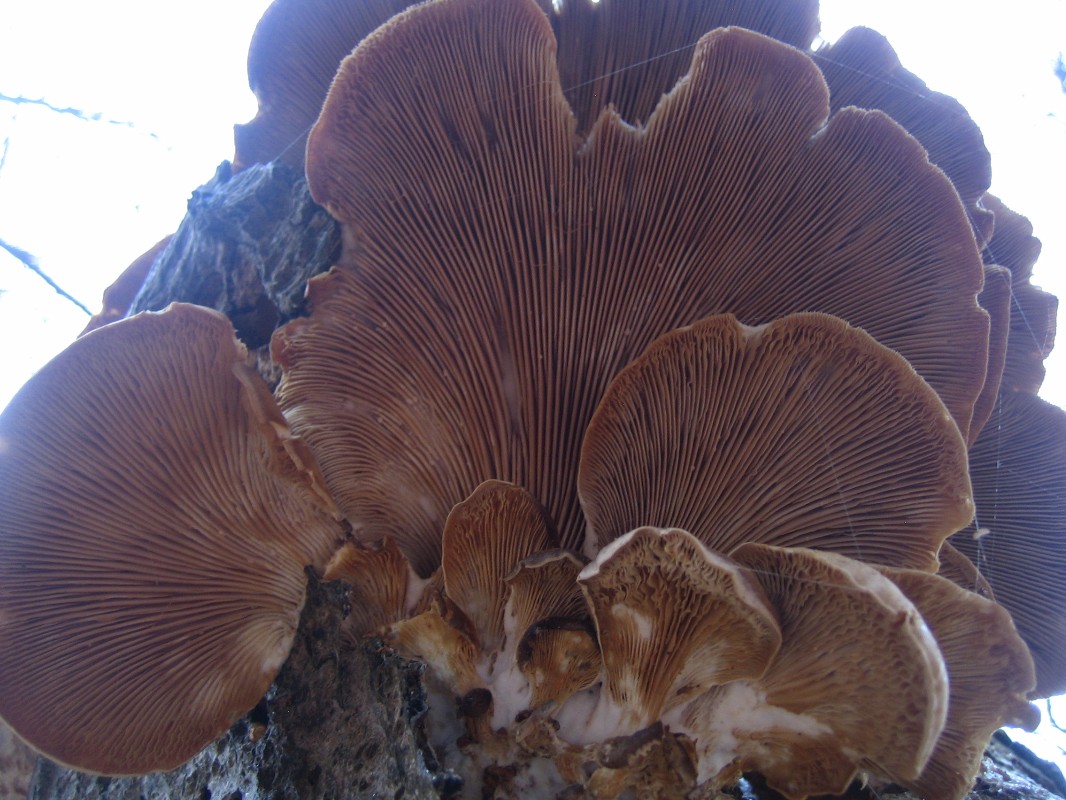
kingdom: Fungi
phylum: Basidiomycota
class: Agaricomycetes
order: Agaricales
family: Pleurotaceae
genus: Pleurotus
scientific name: Pleurotus ostreatus
